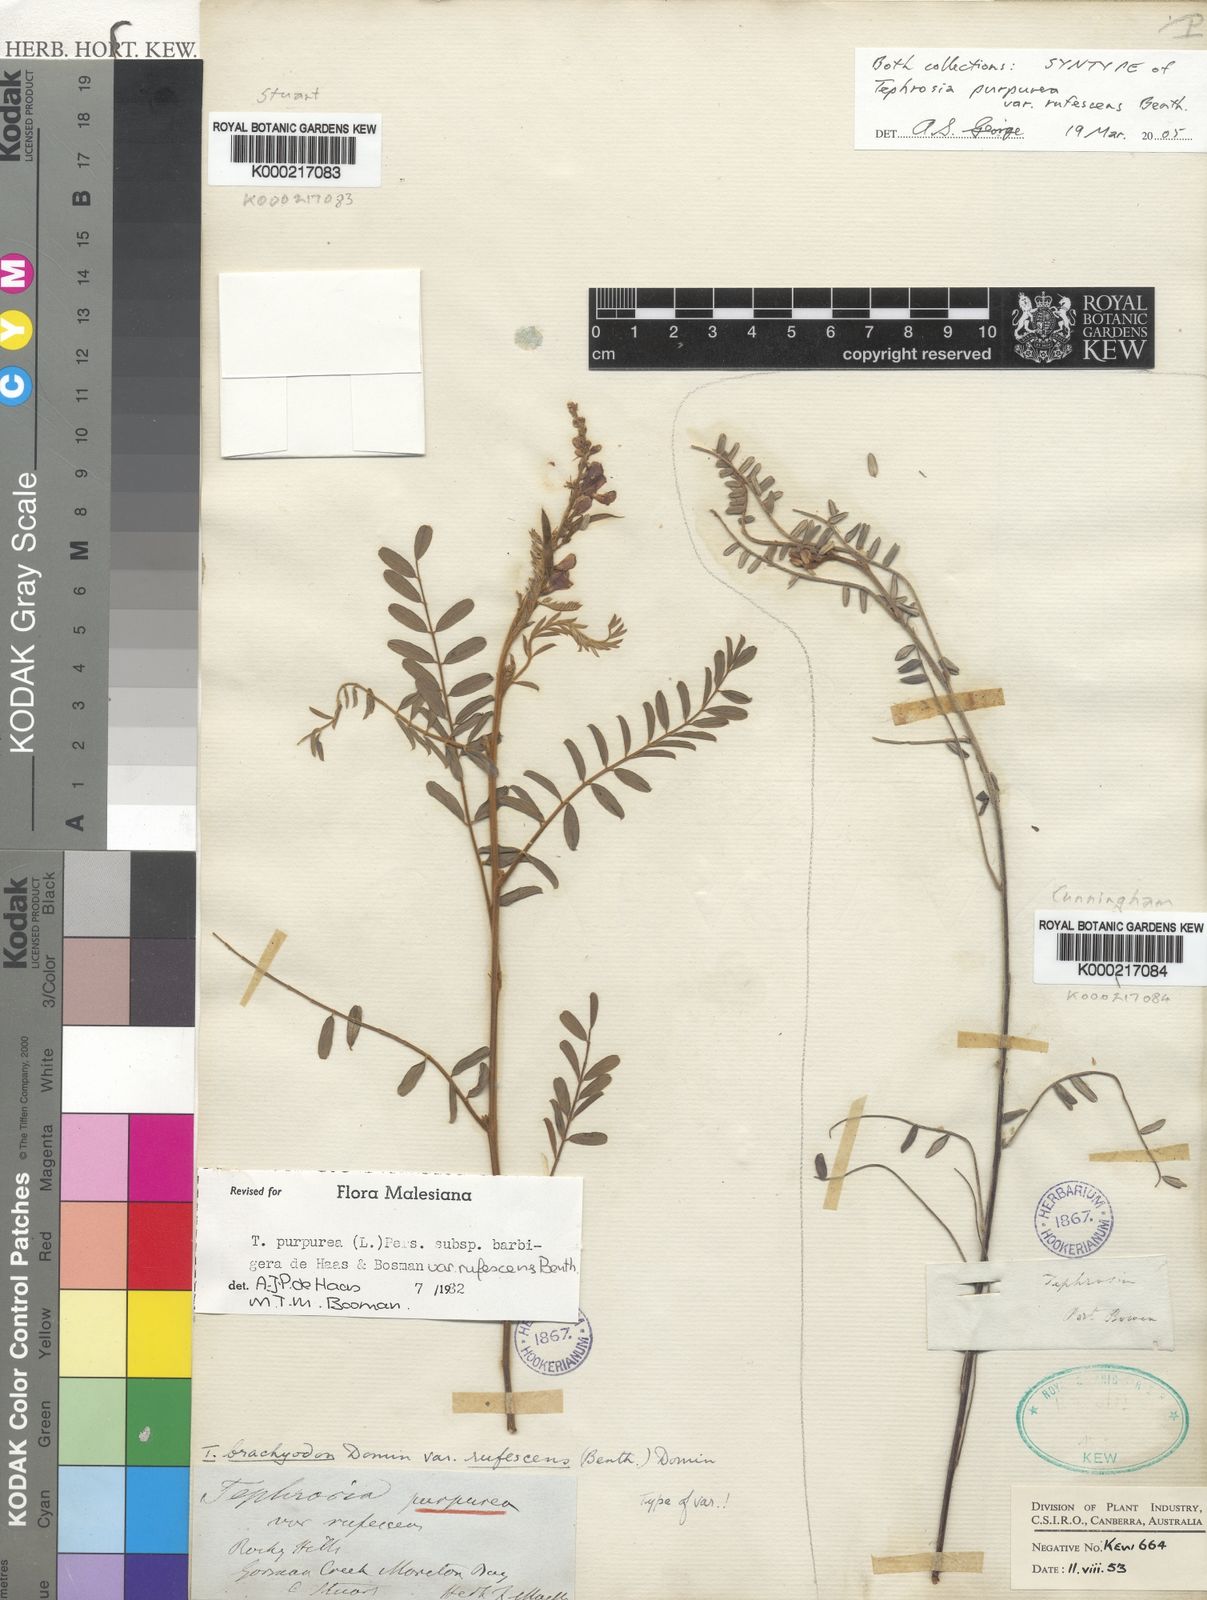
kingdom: Plantae
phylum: Tracheophyta
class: Magnoliopsida
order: Fabales
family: Fabaceae
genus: Tephrosia
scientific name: Tephrosia rufula
